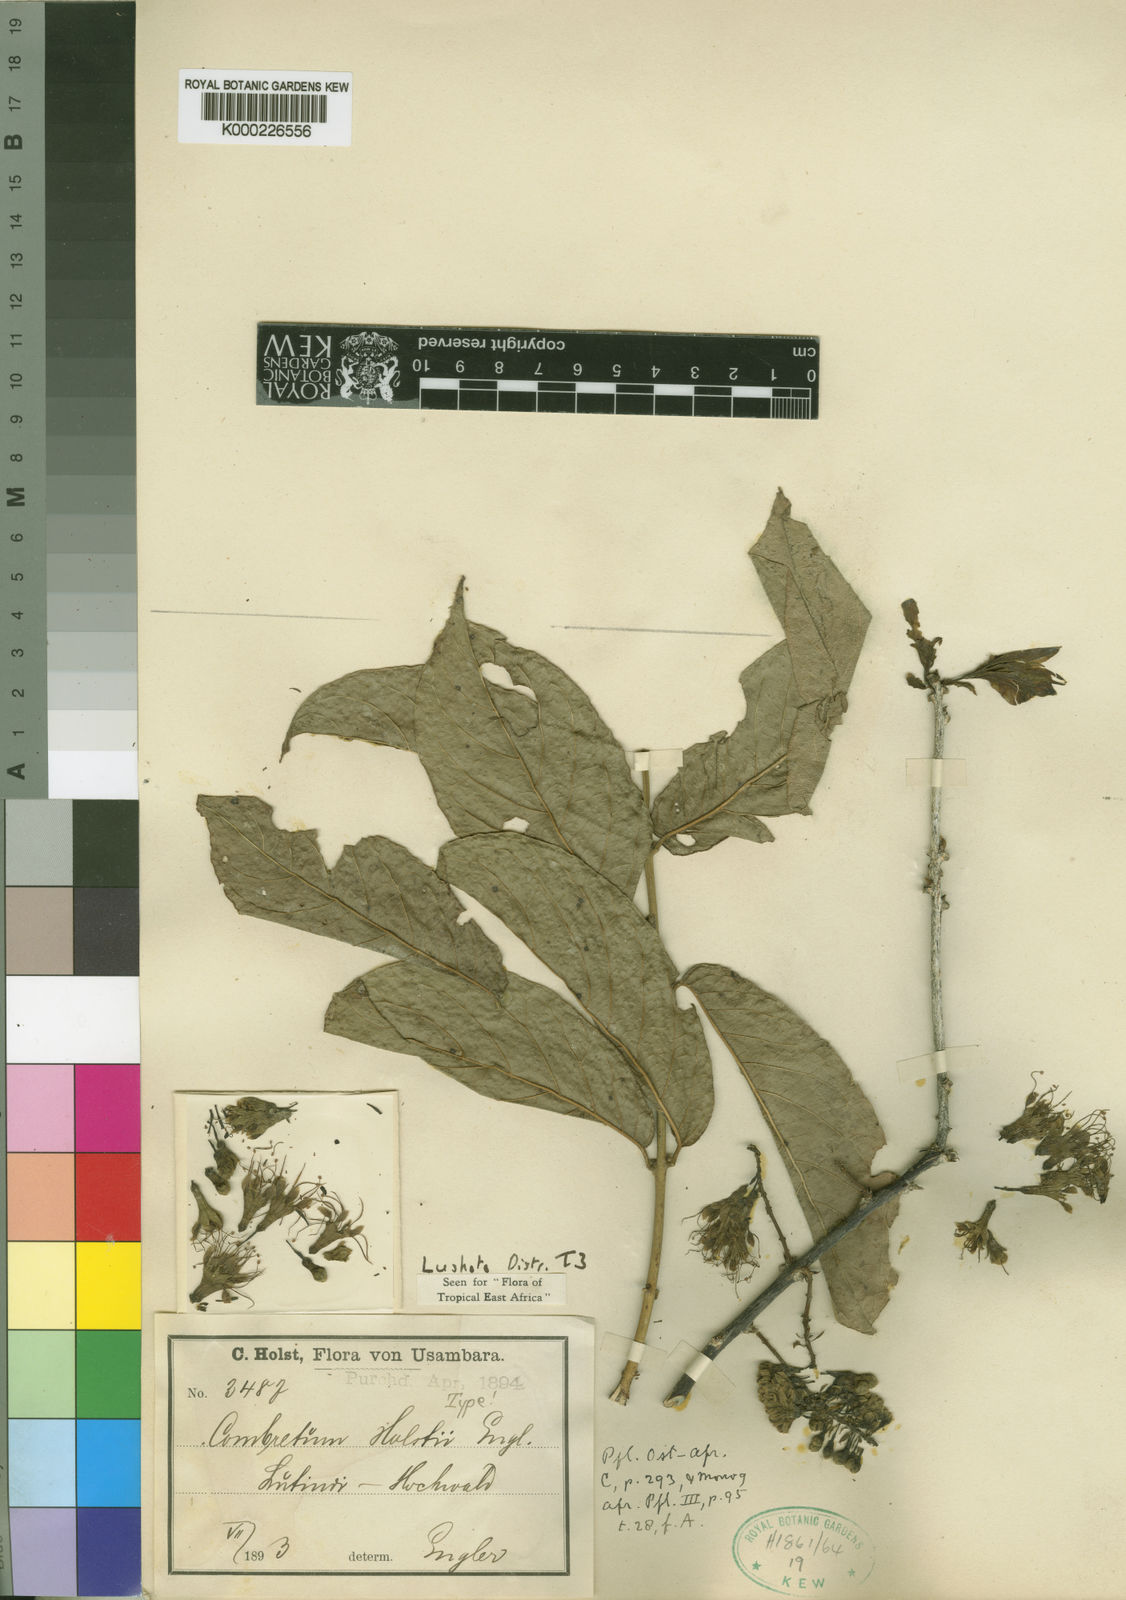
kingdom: Plantae
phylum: Tracheophyta
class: Magnoliopsida
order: Myrtales
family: Combretaceae
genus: Combretum
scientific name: Combretum holstii
